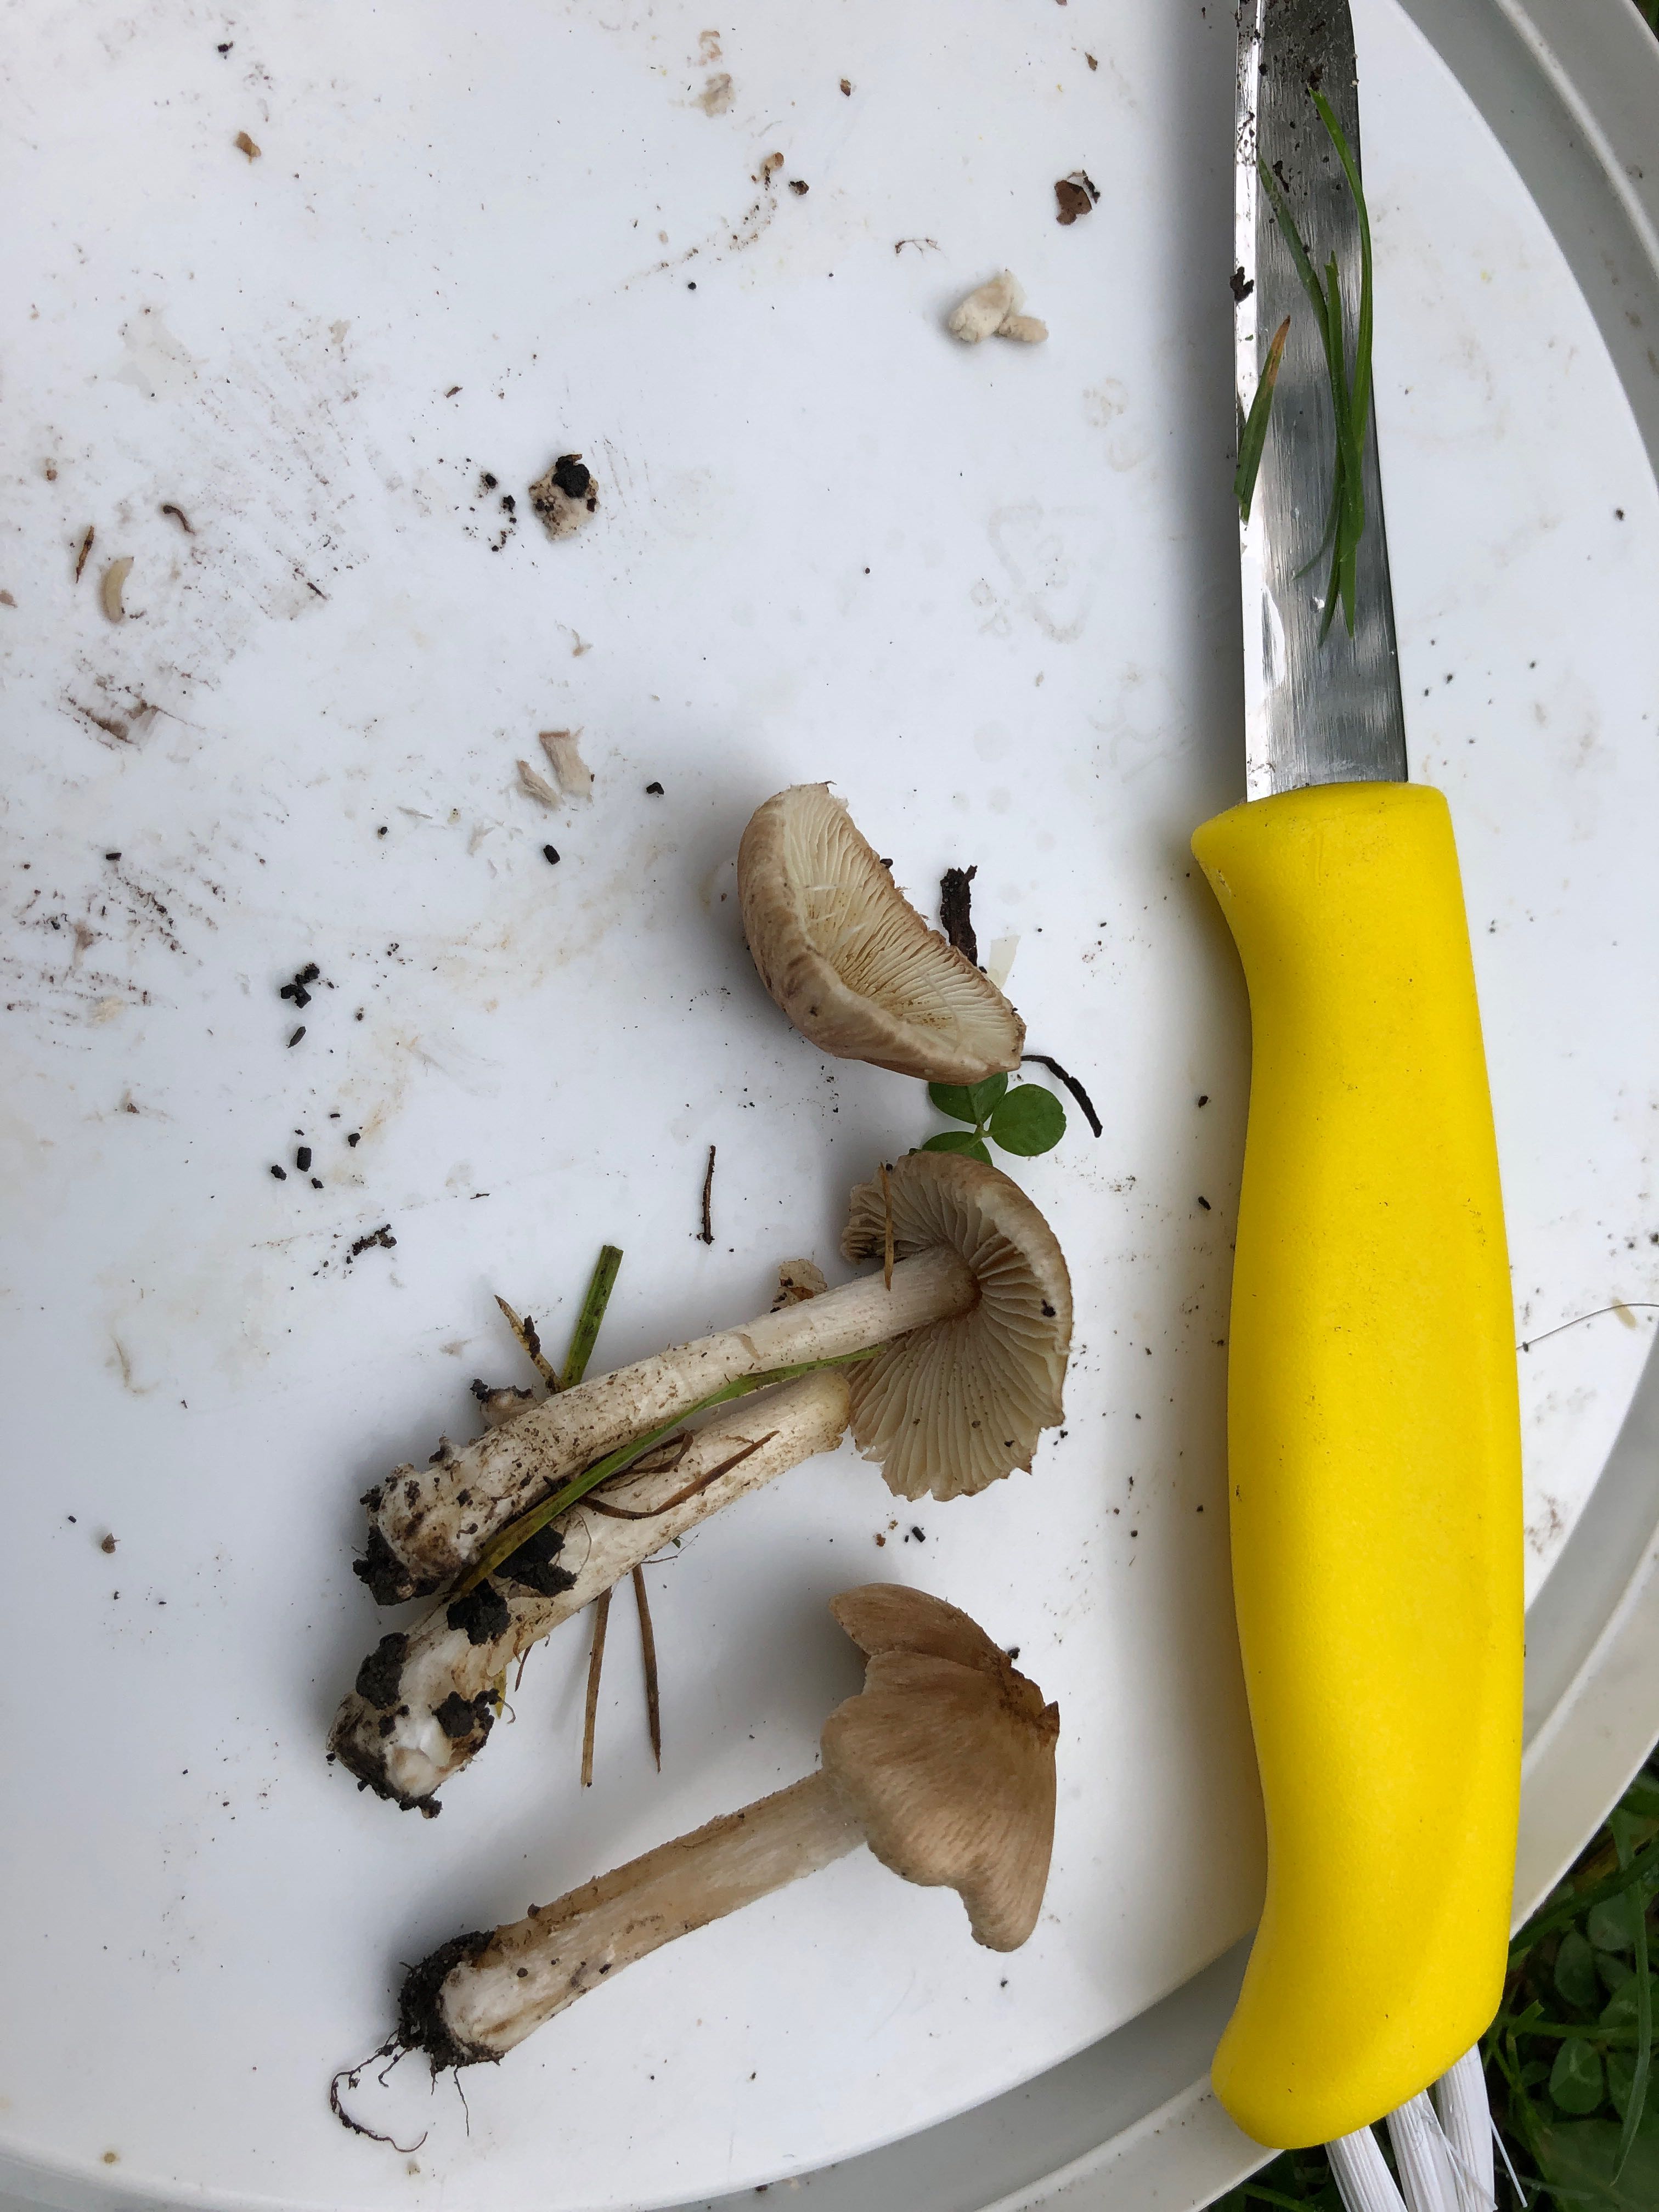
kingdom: Fungi
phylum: Basidiomycota
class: Agaricomycetes
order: Agaricales
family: Inocybaceae
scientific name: Inocybaceae
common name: trævlhatfamilien
